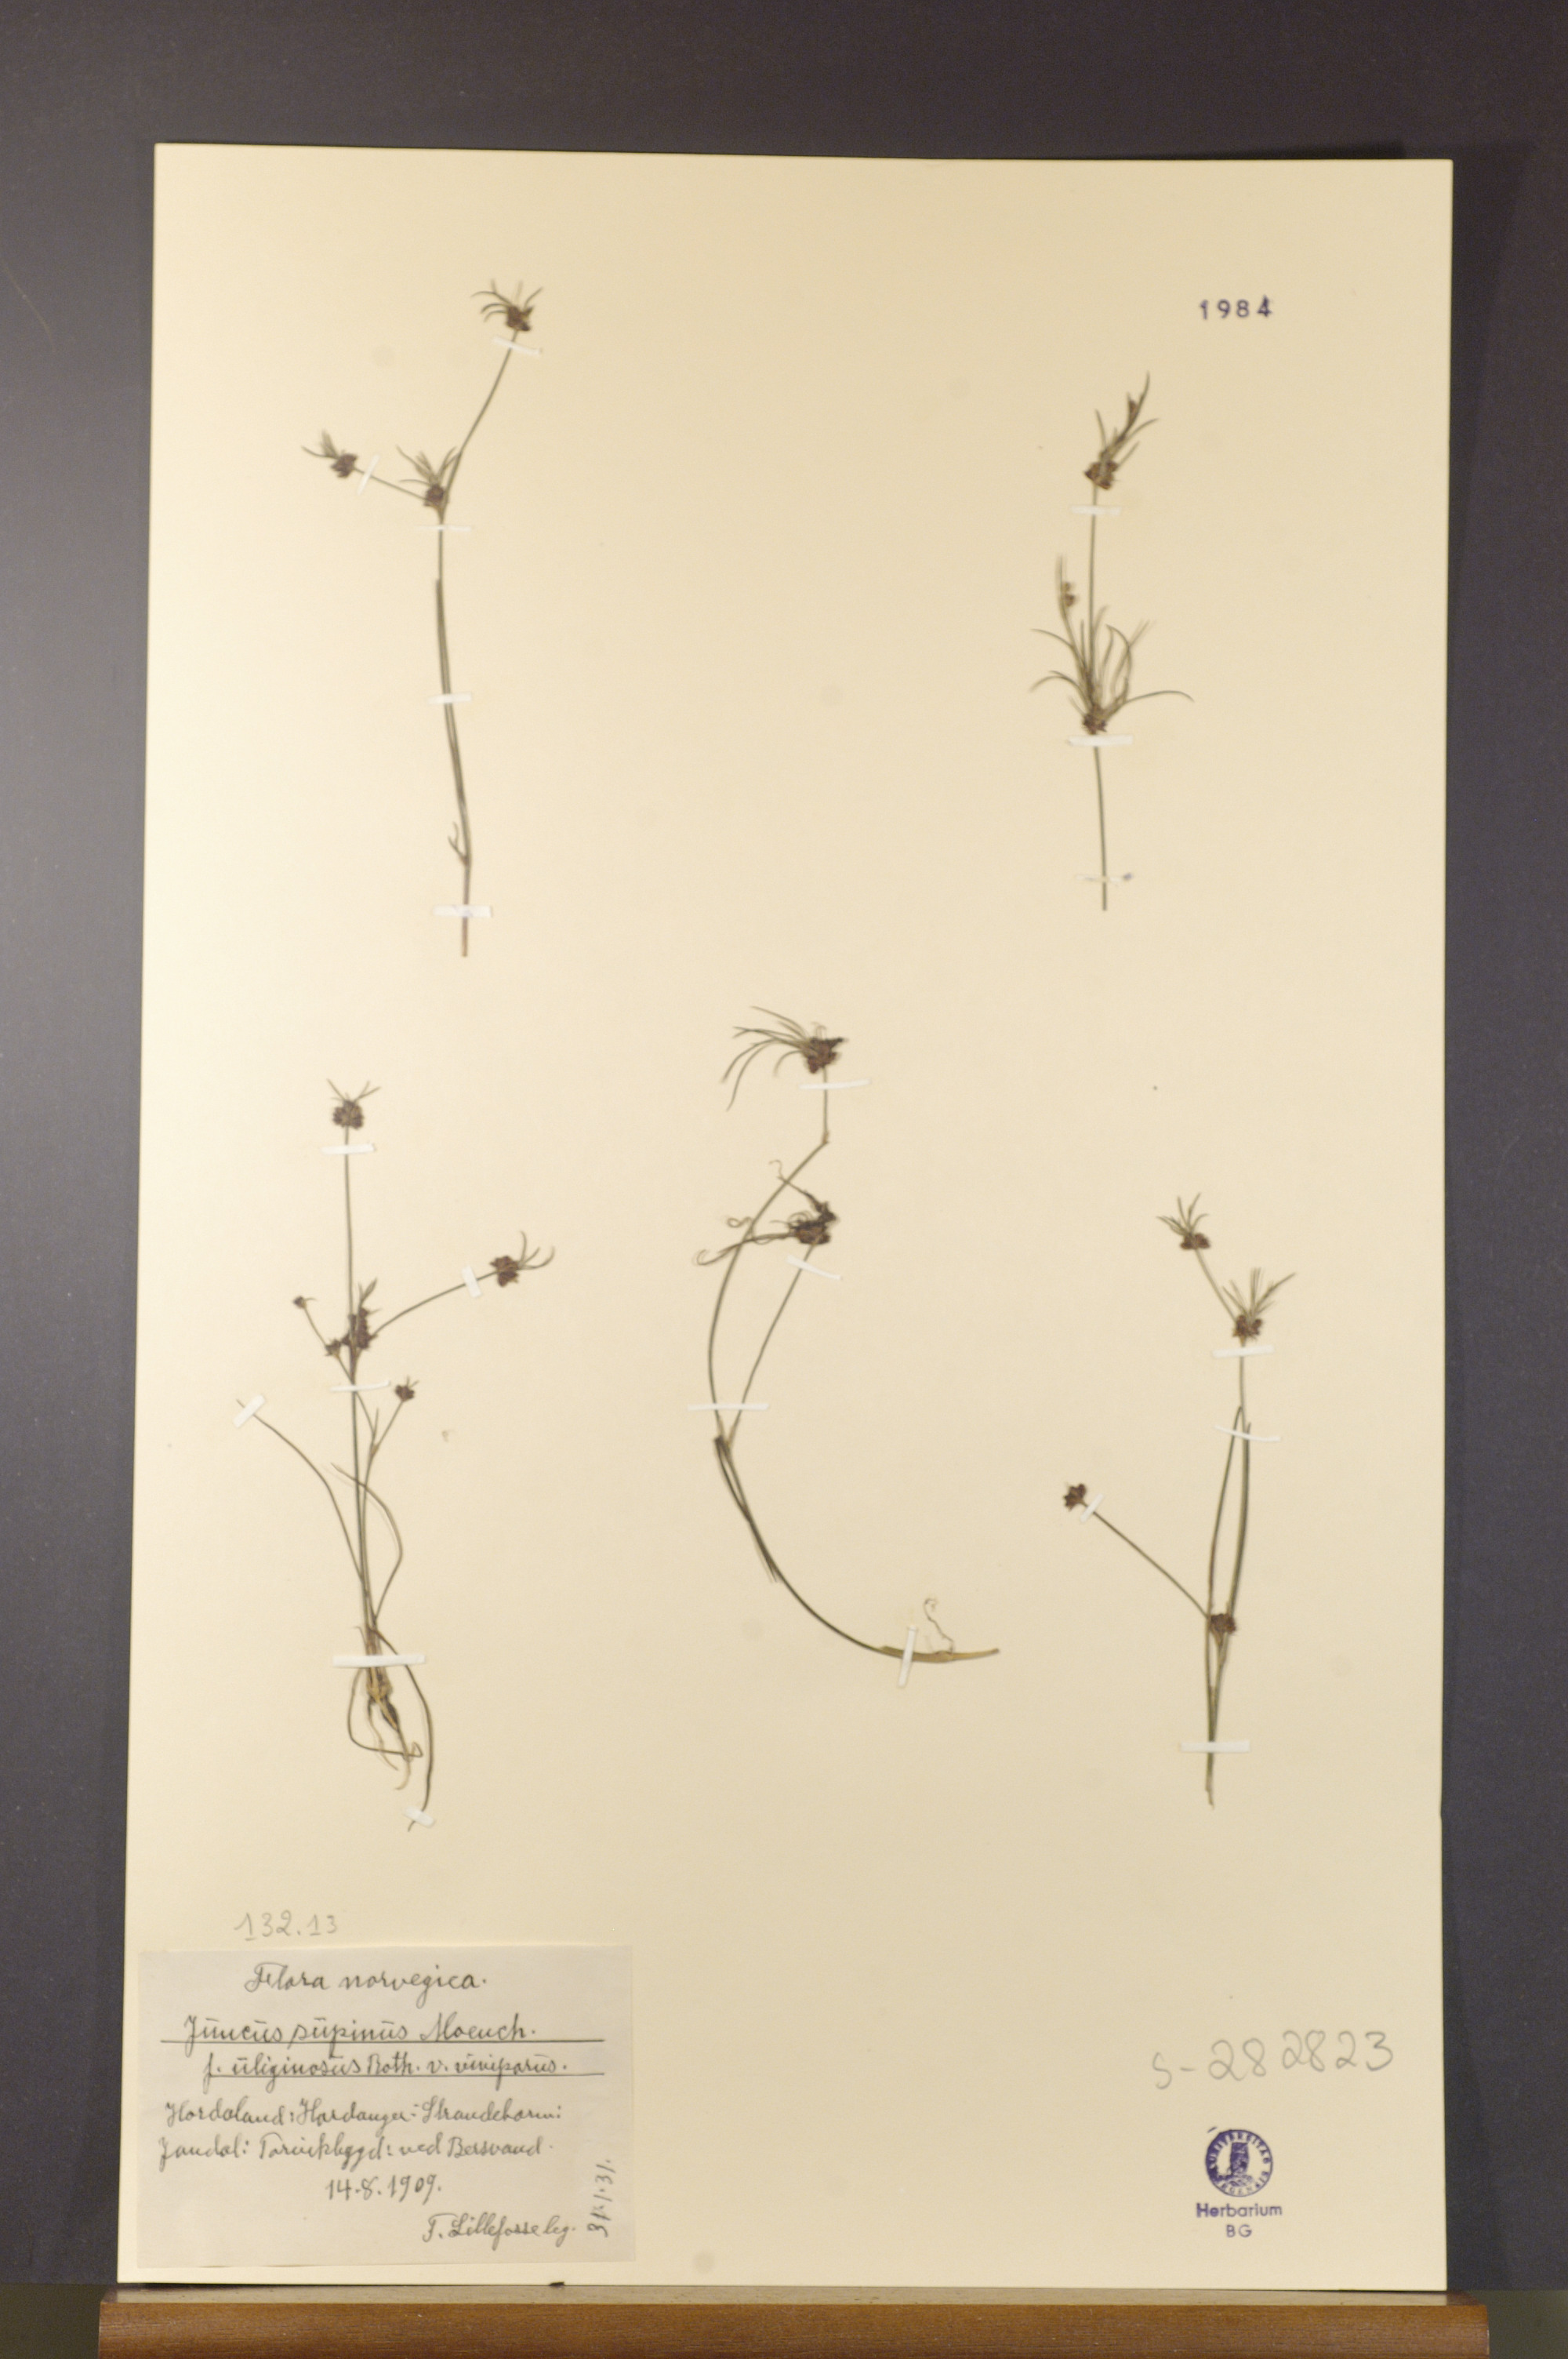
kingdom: Plantae
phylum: Tracheophyta
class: Liliopsida
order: Poales
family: Juncaceae
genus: Juncus
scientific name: Juncus bulbosus
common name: Bulbous rush
